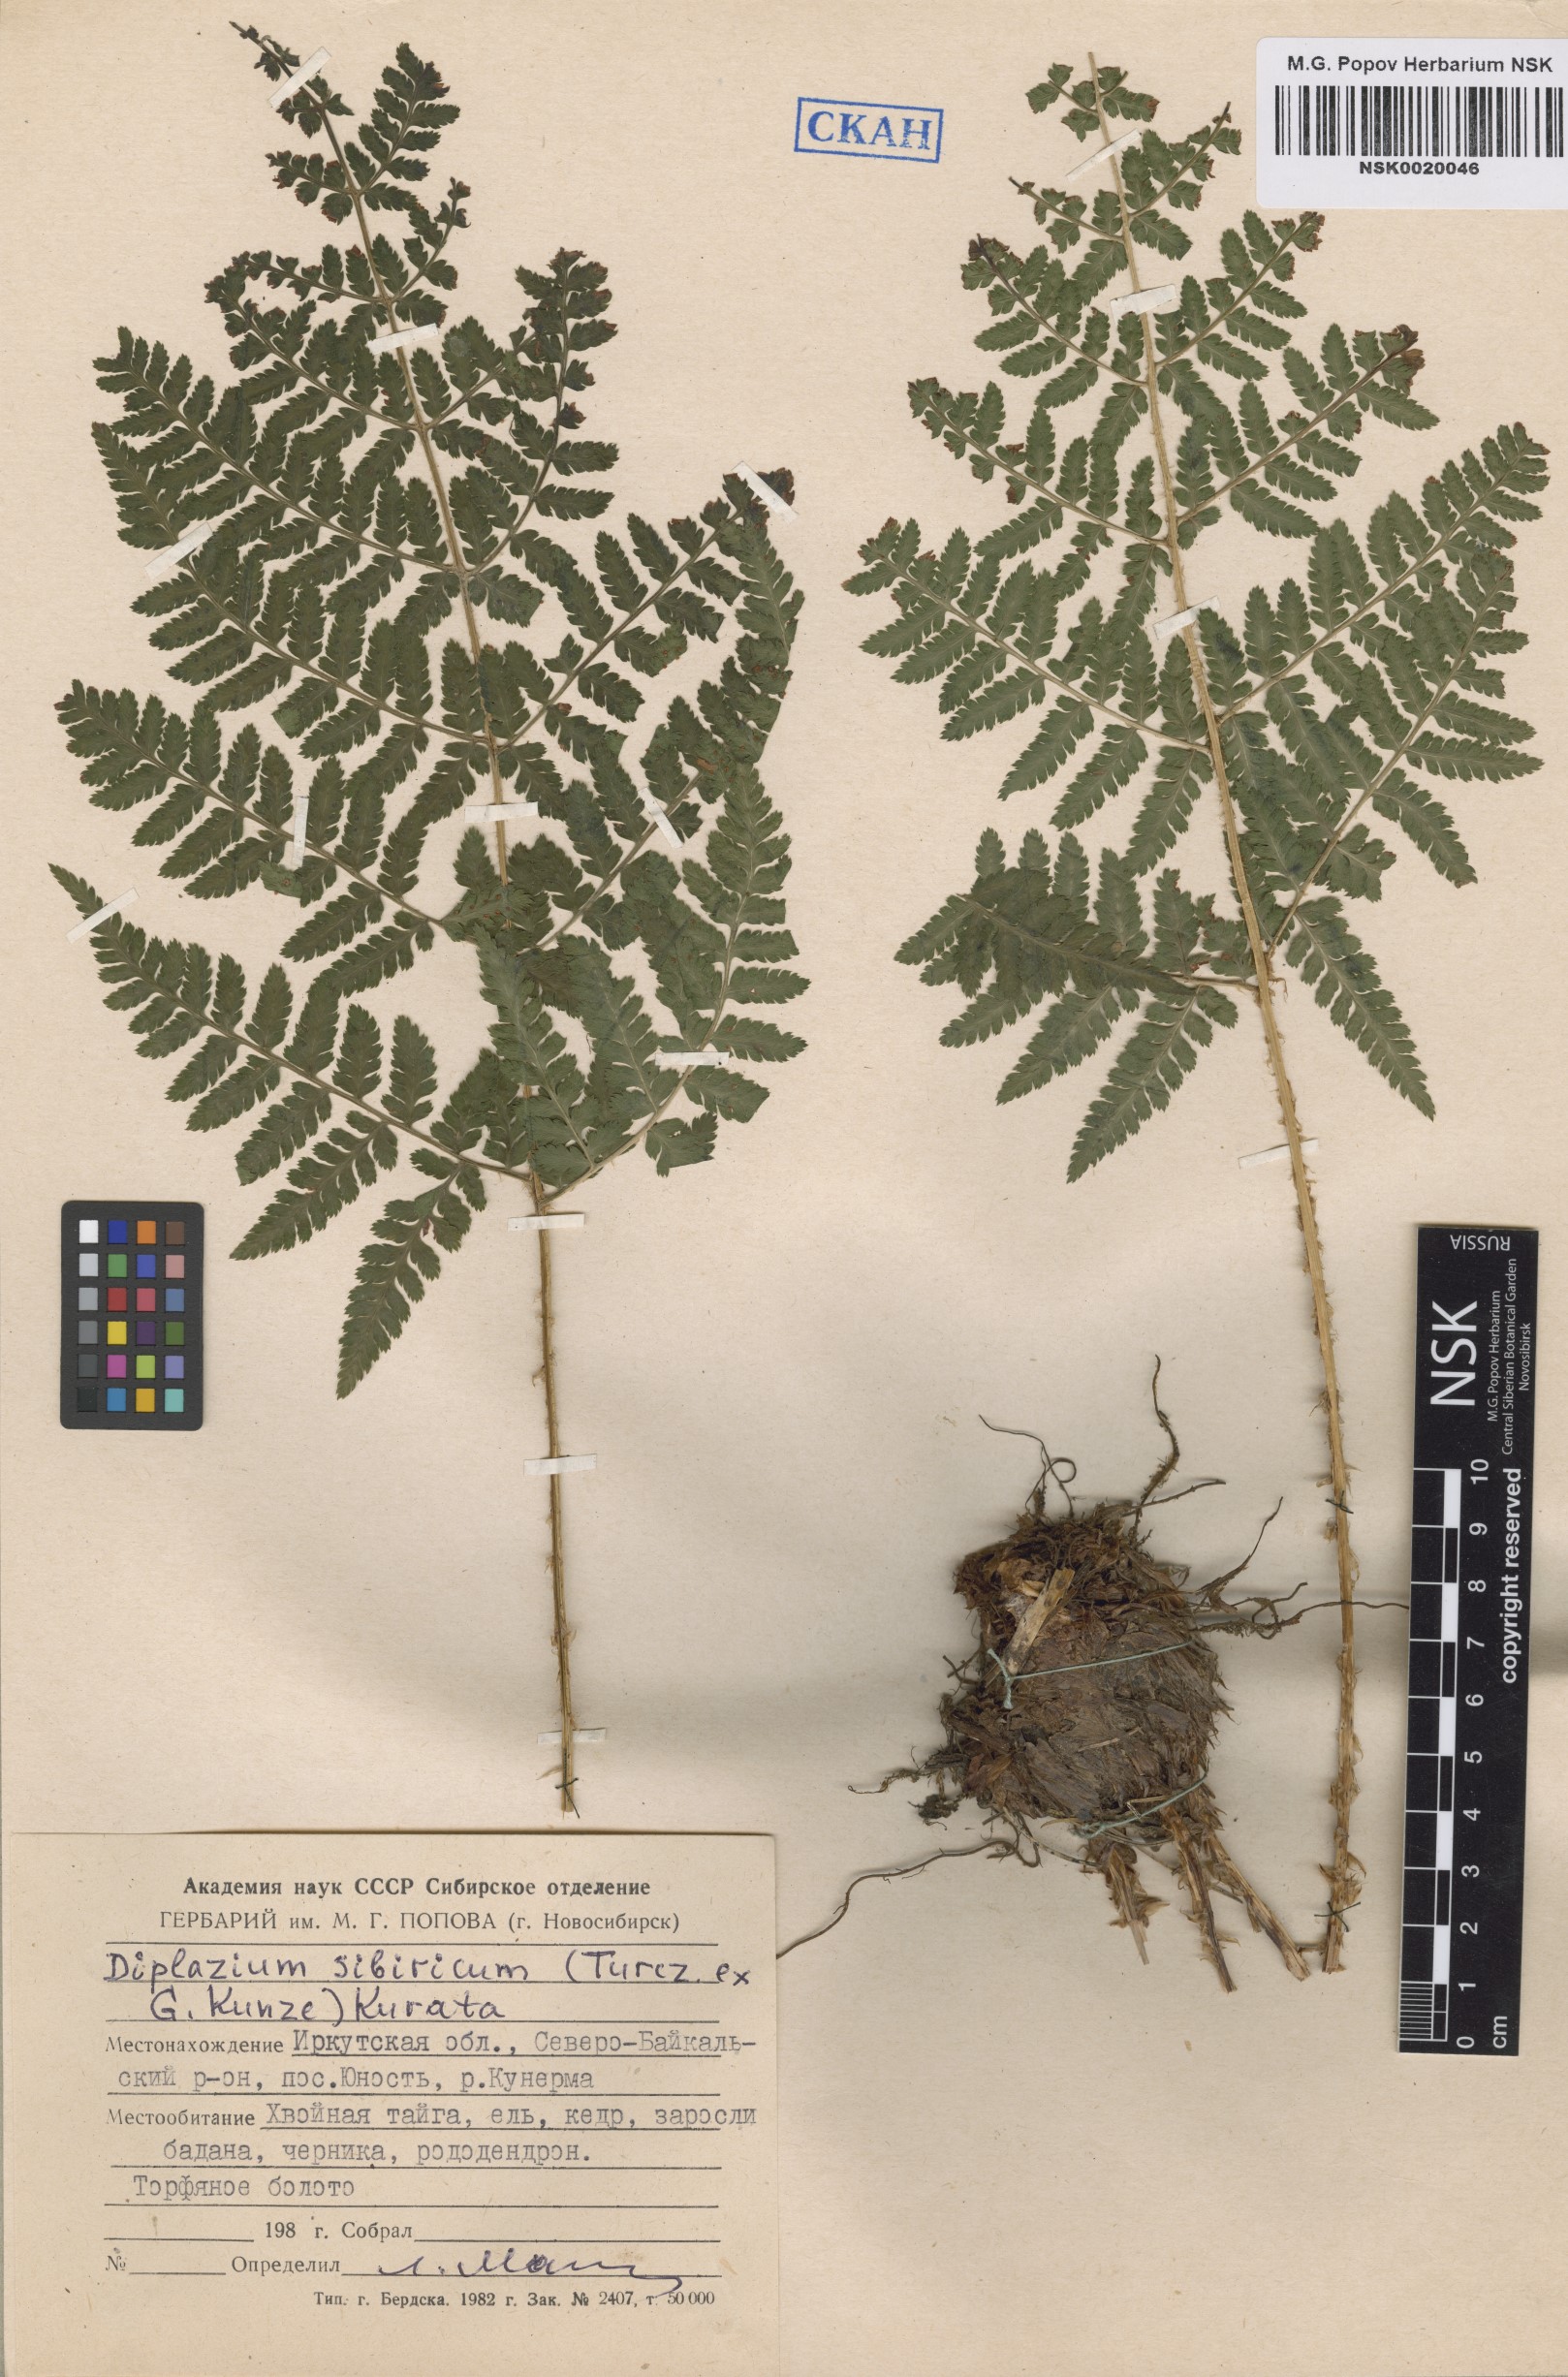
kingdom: Plantae
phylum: Tracheophyta
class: Polypodiopsida
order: Polypodiales
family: Athyriaceae
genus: Diplazium
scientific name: Diplazium sibiricum
